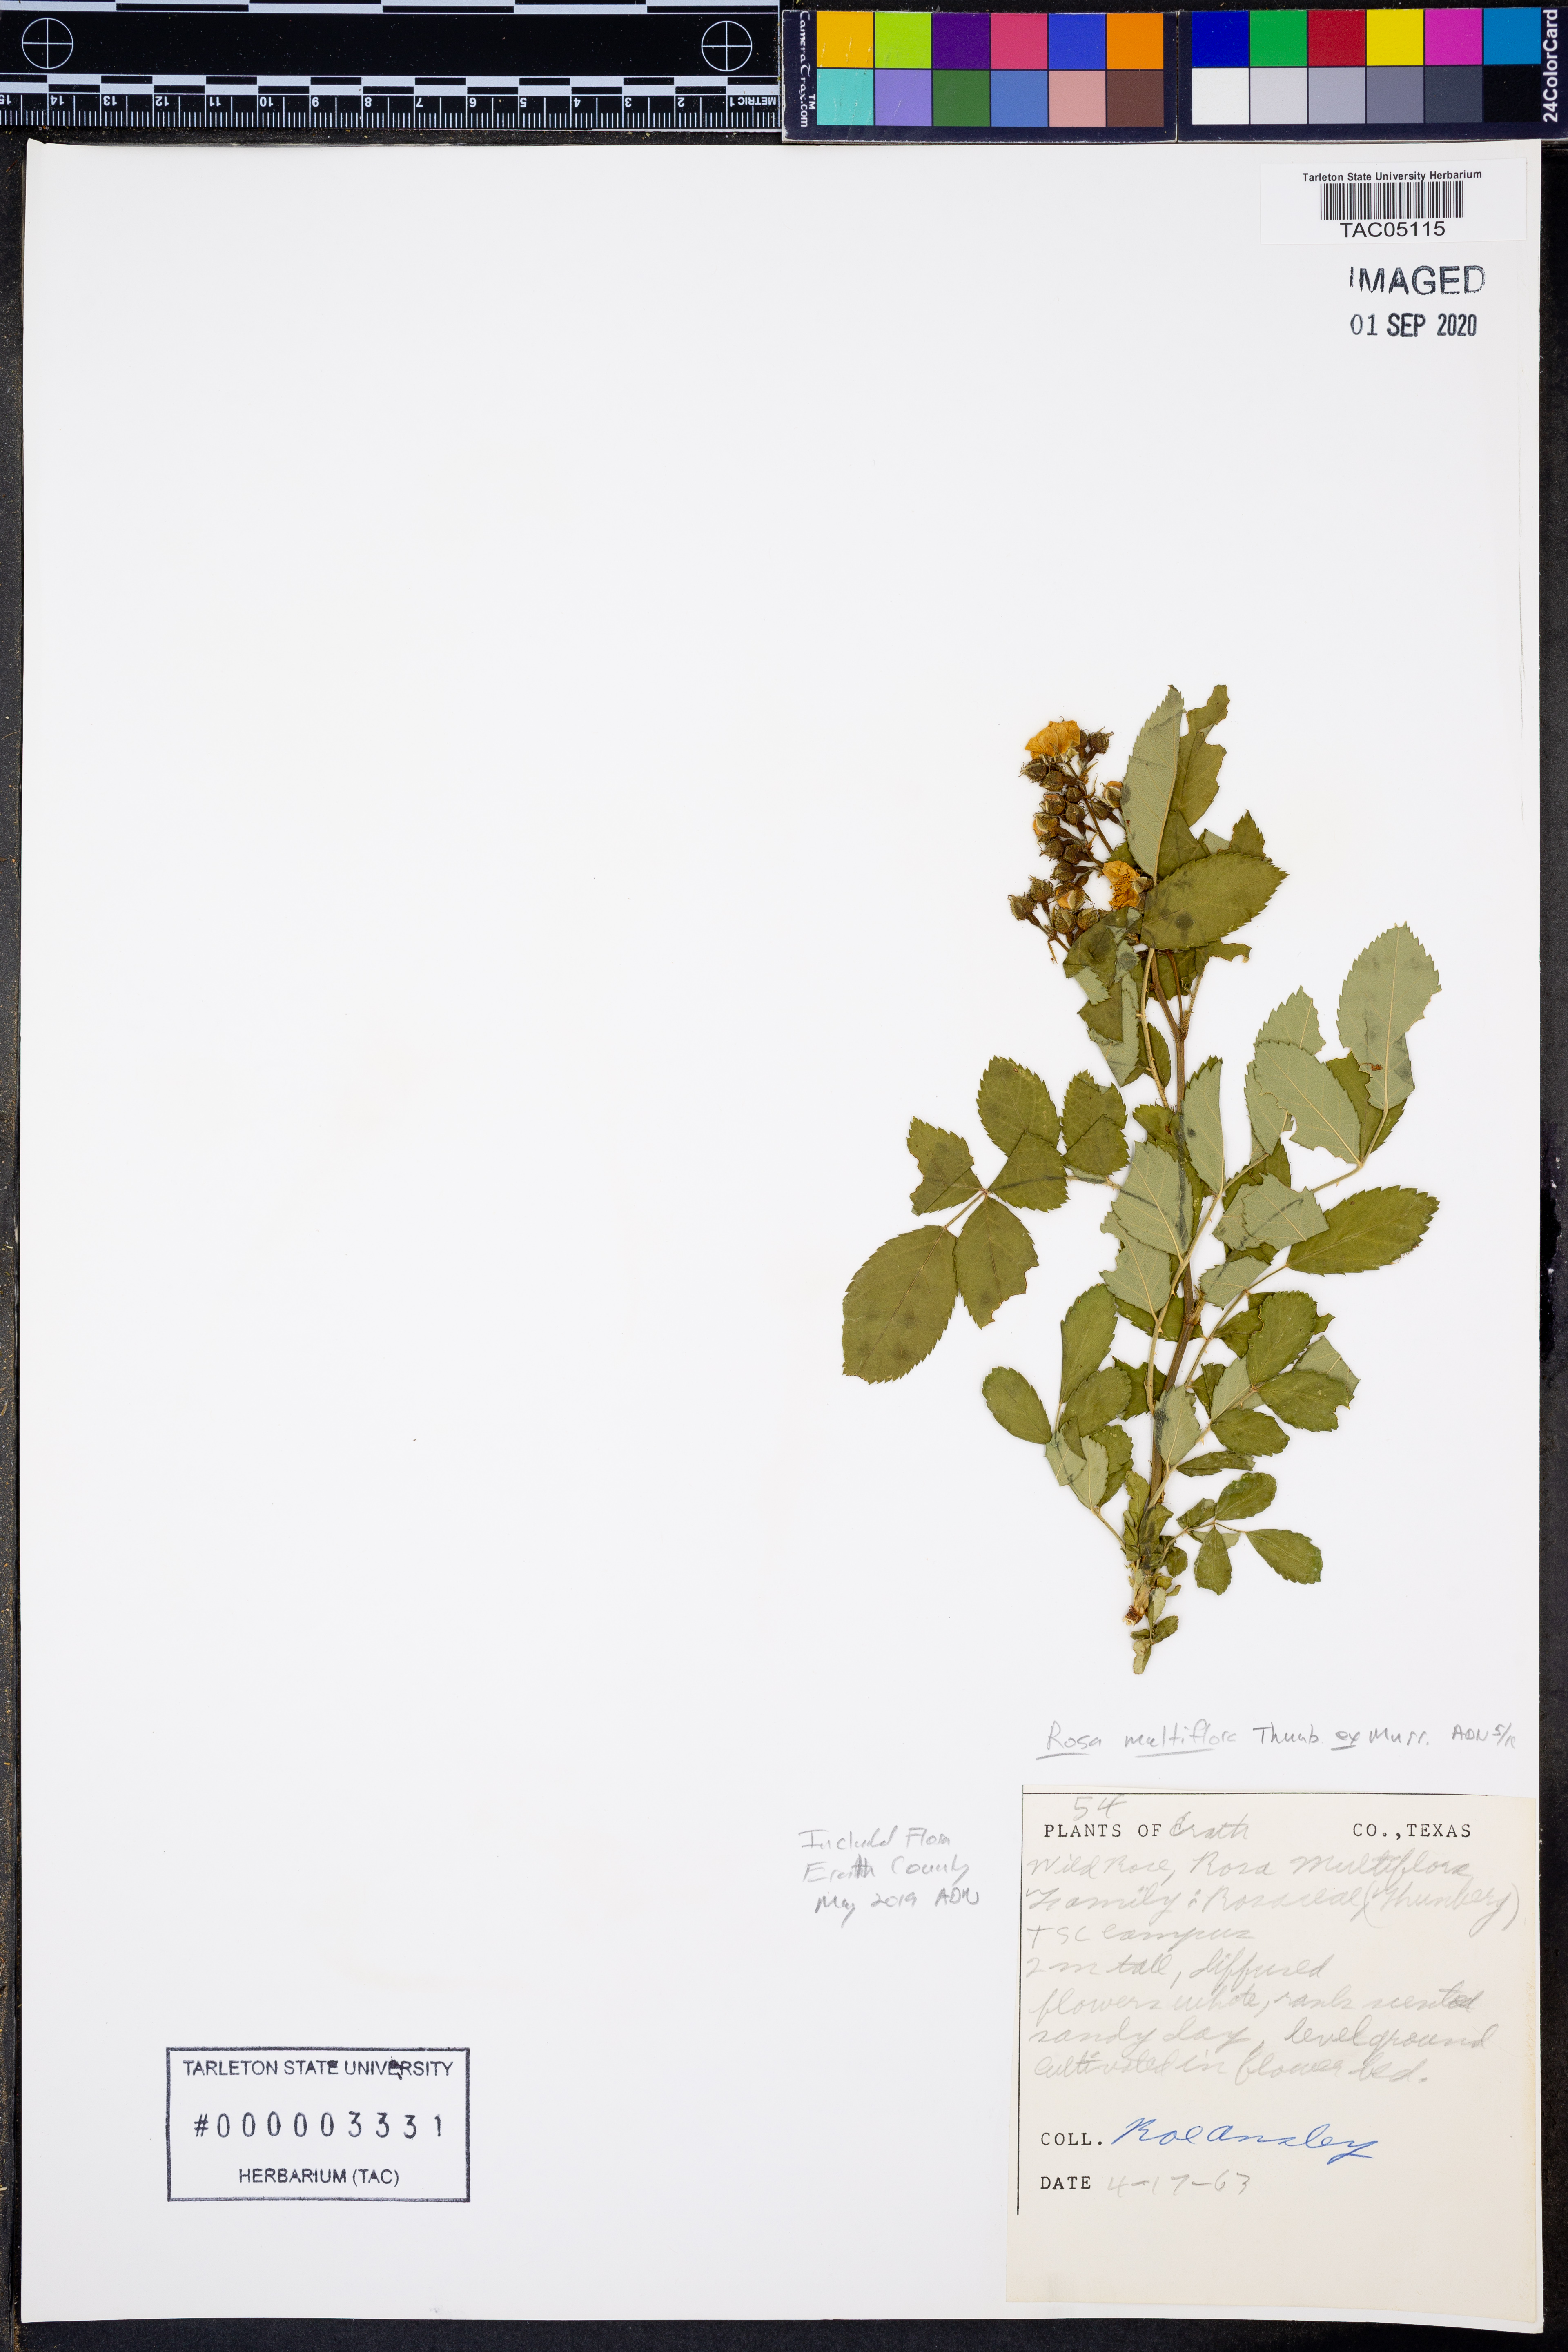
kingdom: Plantae
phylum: Tracheophyta
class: Magnoliopsida
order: Rosales
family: Rosaceae
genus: Rosa
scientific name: Rosa multiflora
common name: Multiflora rose
